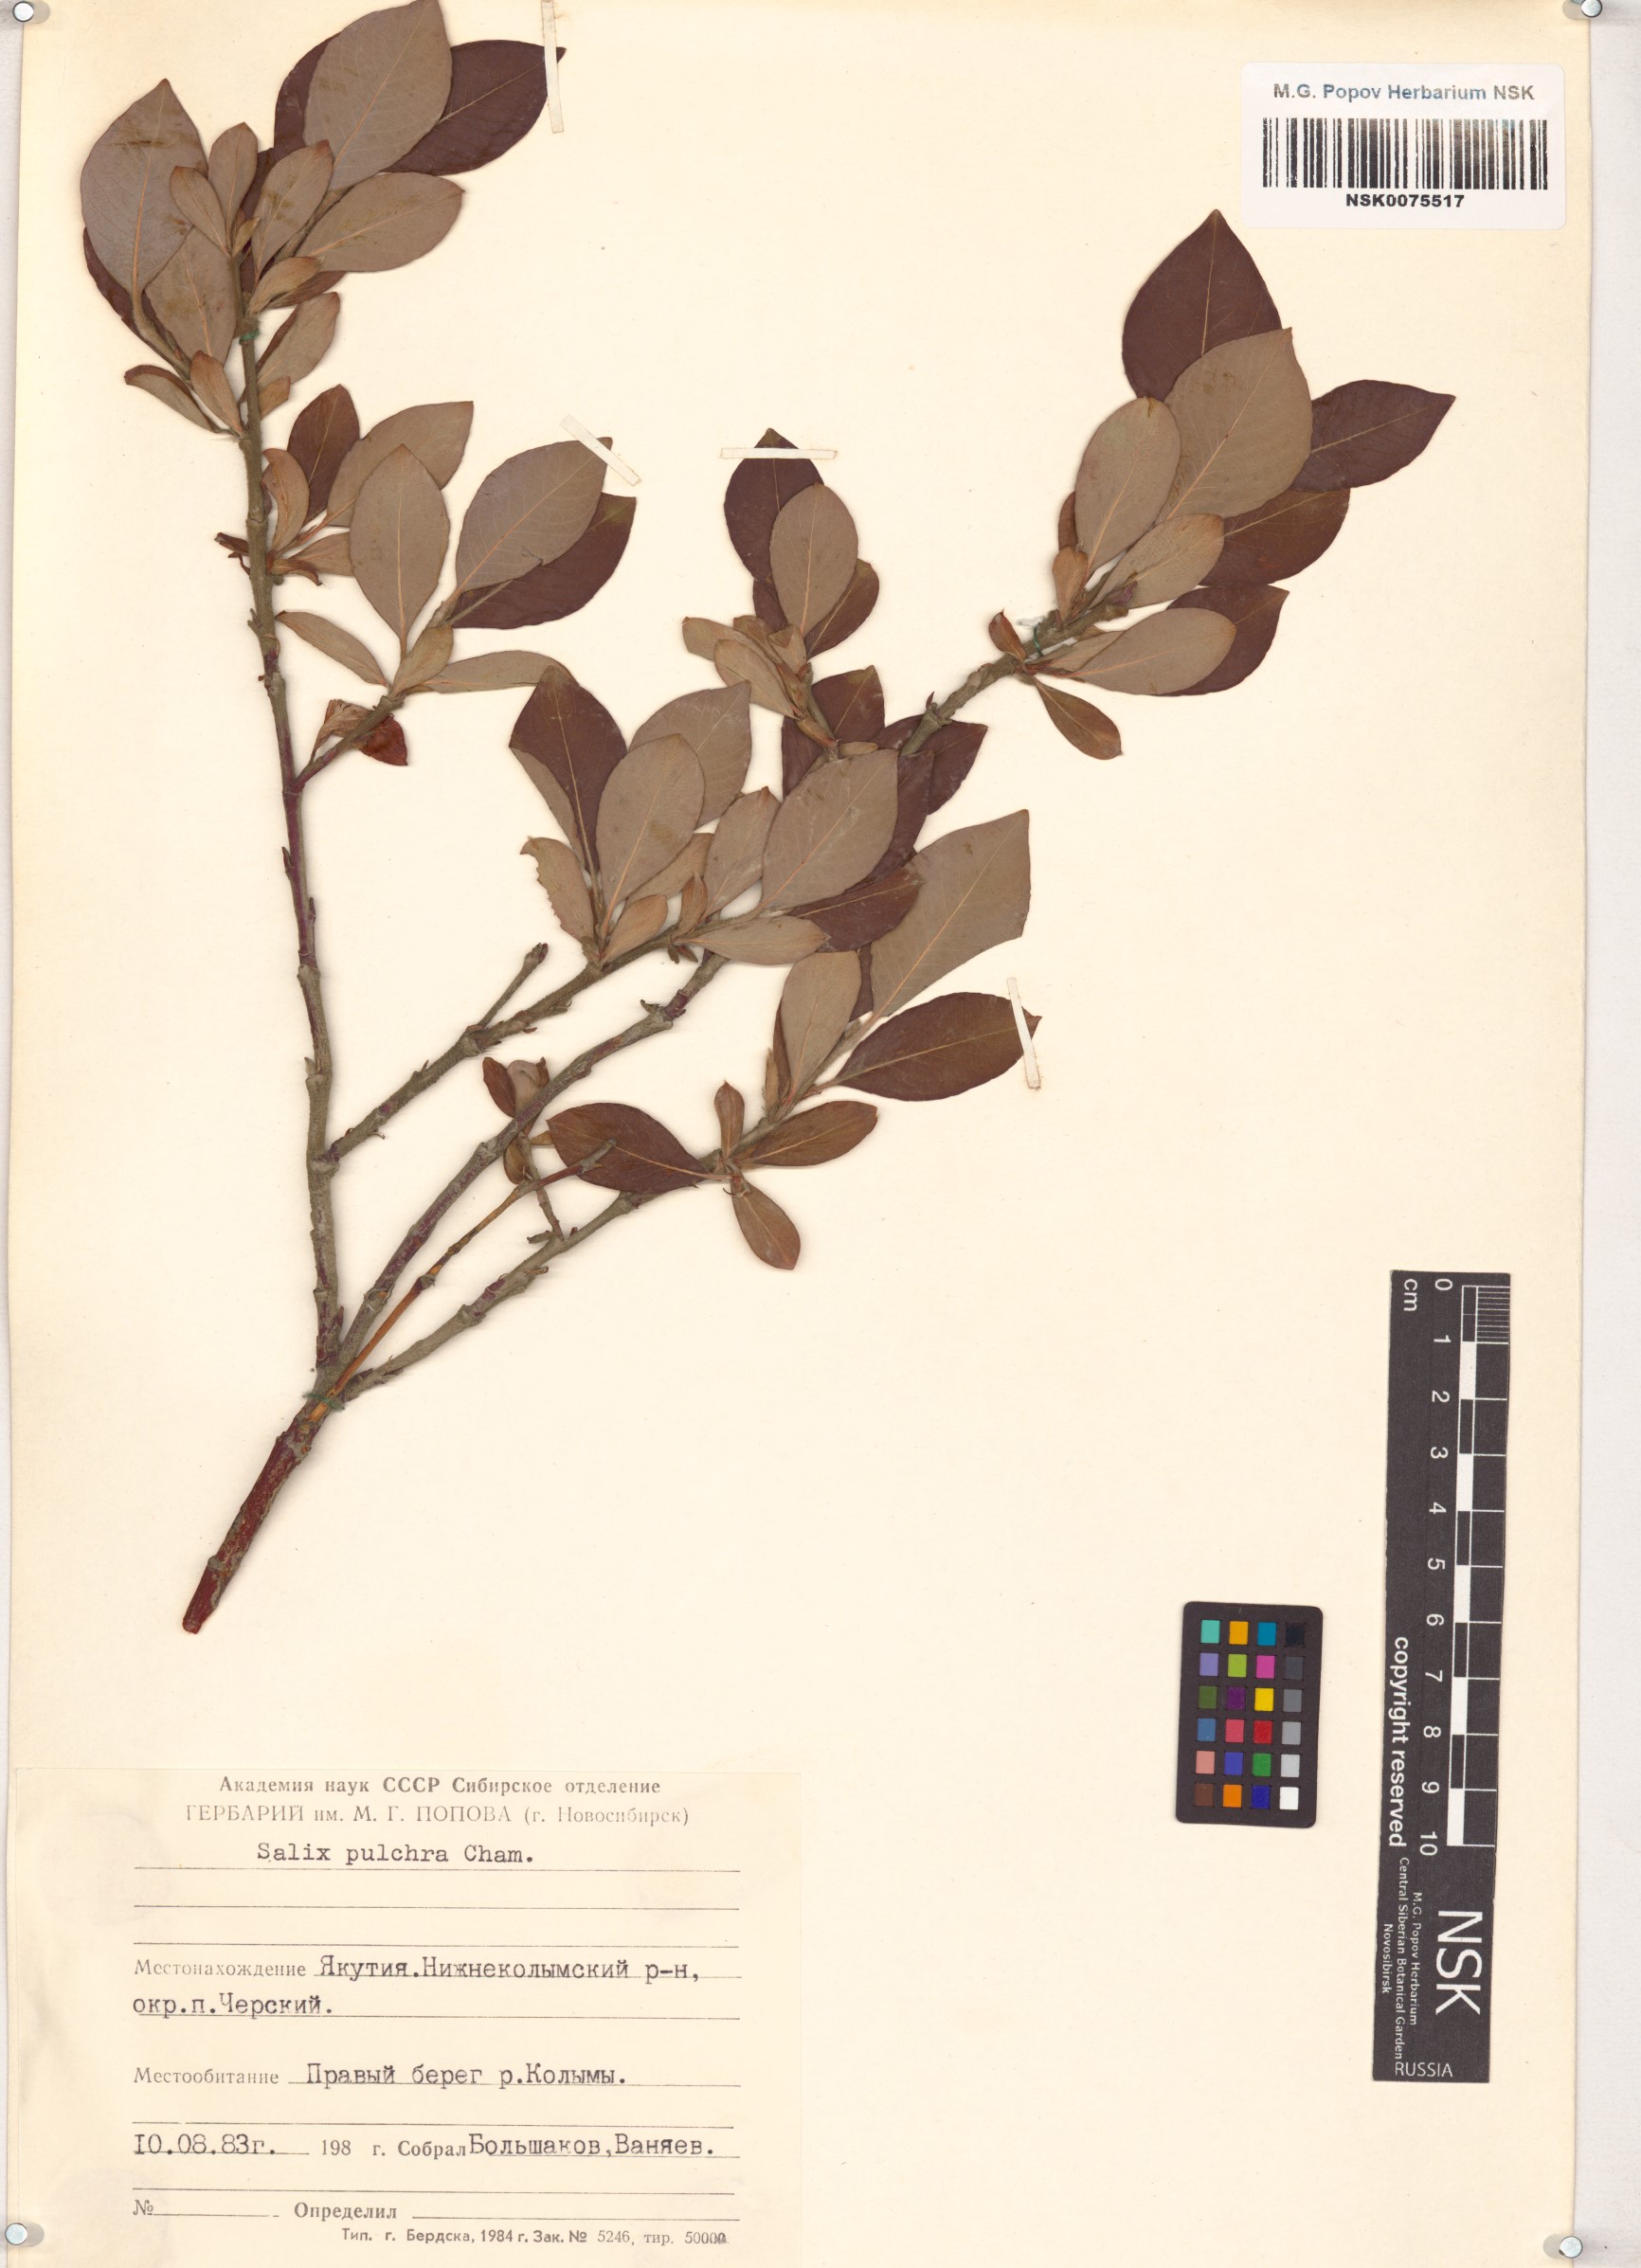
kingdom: Plantae
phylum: Tracheophyta
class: Magnoliopsida
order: Malpighiales
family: Salicaceae
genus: Salix
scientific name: Salix pulchra
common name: Diamond-leaved willow
